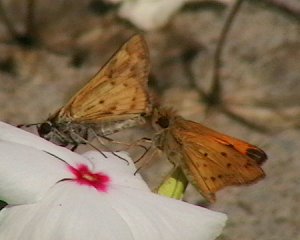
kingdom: Animalia
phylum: Arthropoda
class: Insecta
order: Lepidoptera
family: Hesperiidae
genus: Hylephila
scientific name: Hylephila phyleus
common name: Fiery Skipper
